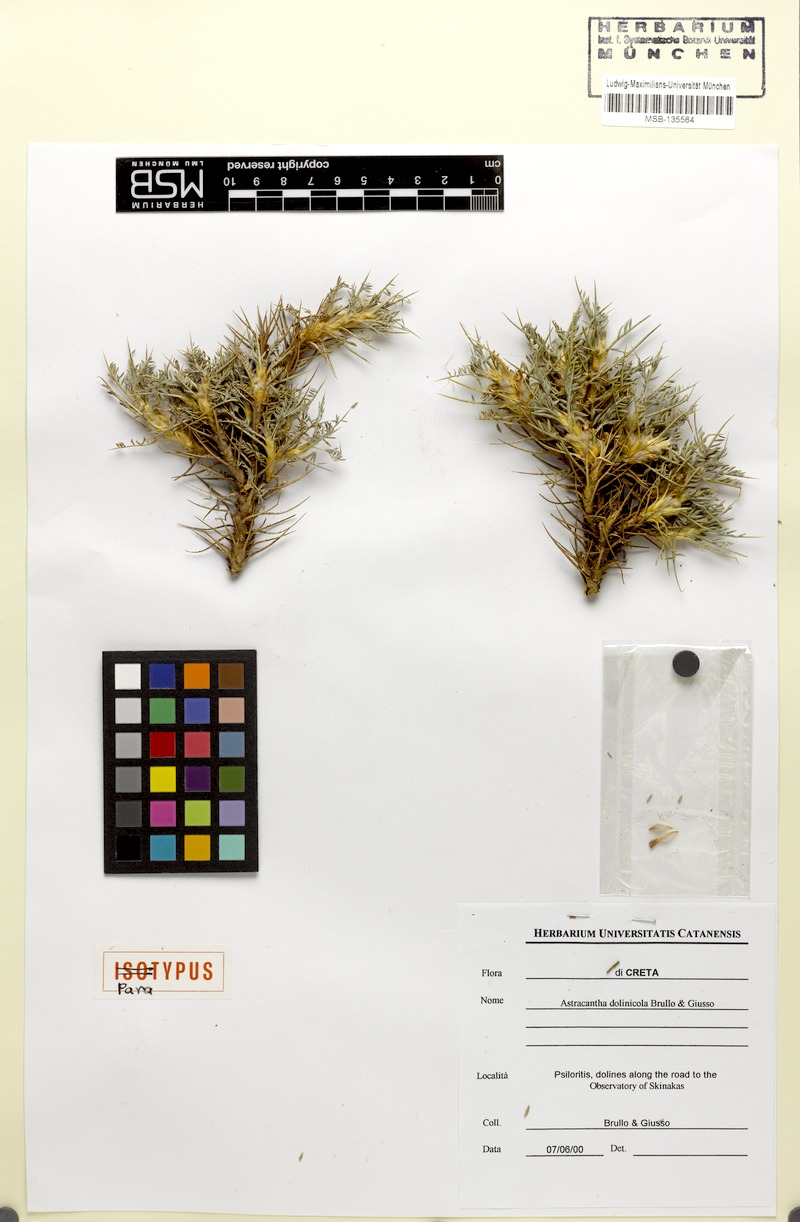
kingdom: Plantae
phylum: Tracheophyta
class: Magnoliopsida
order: Fabales
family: Fabaceae
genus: Astragalus
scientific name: Astragalus dolinicola
